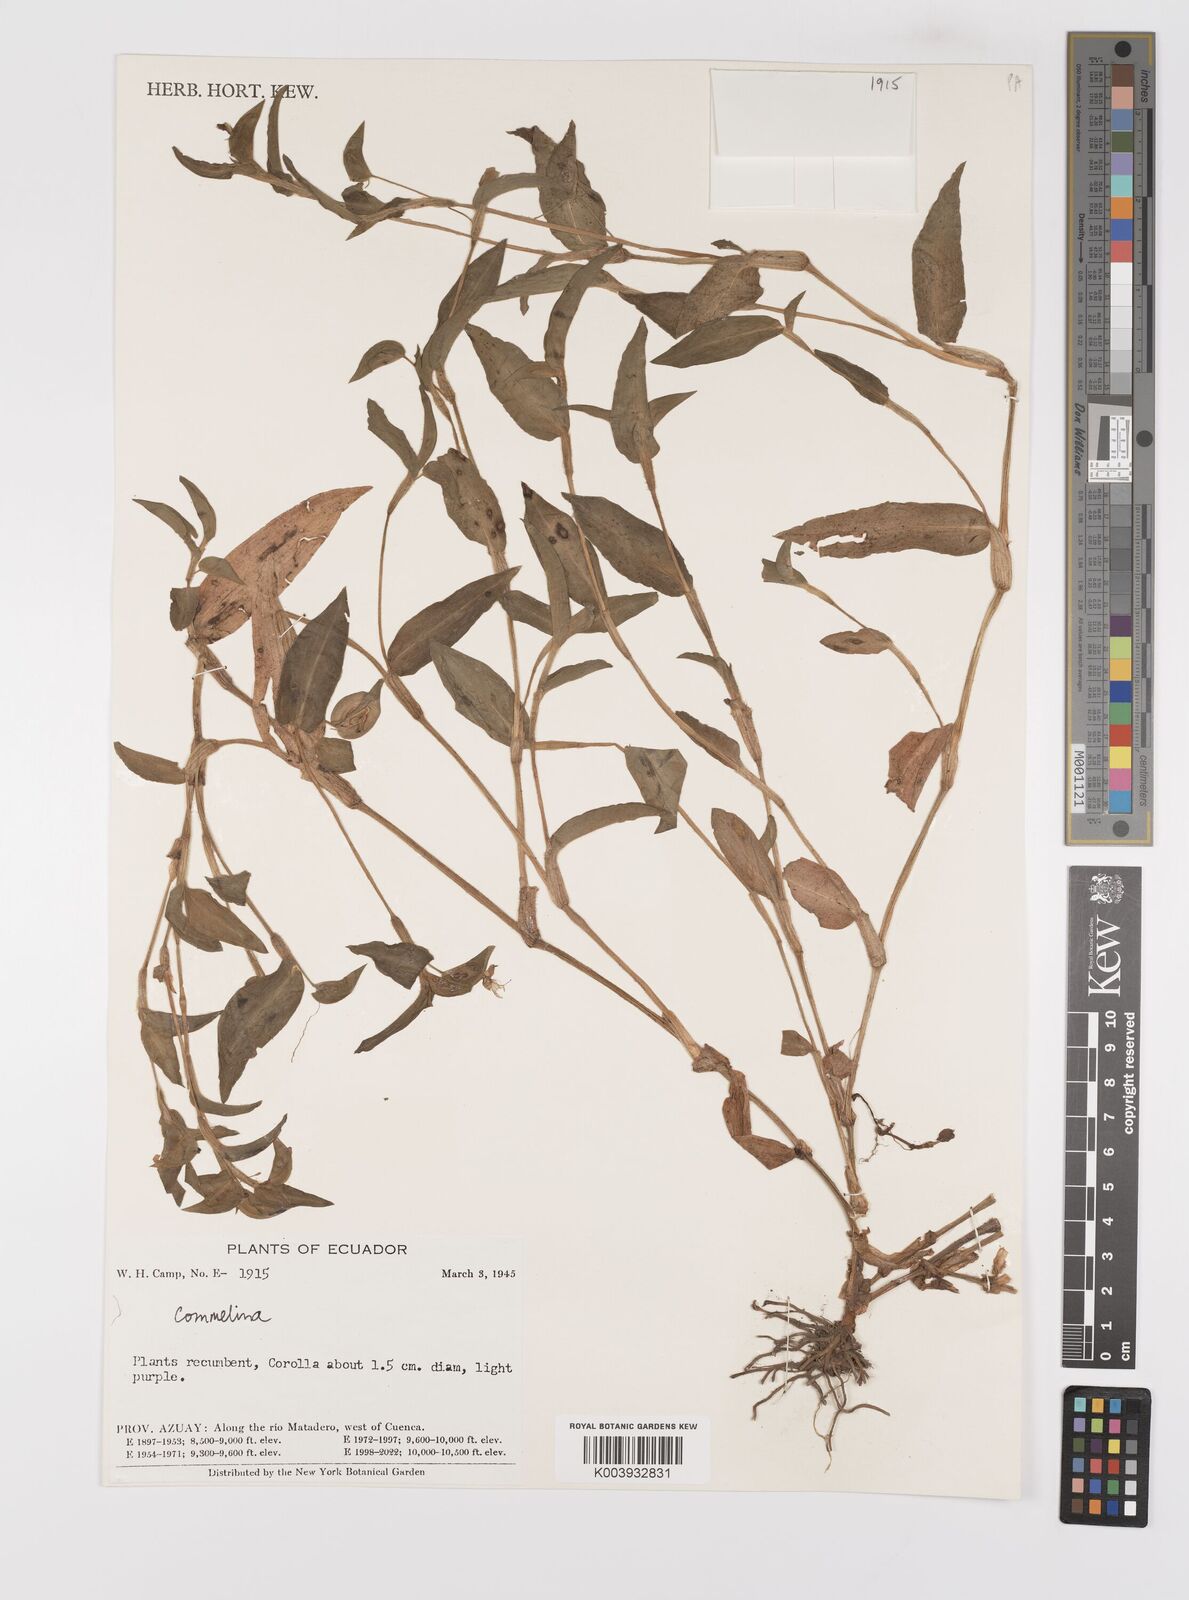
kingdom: Plantae
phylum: Tracheophyta
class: Liliopsida
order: Commelinales
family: Commelinaceae
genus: Commelina
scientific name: Commelina
